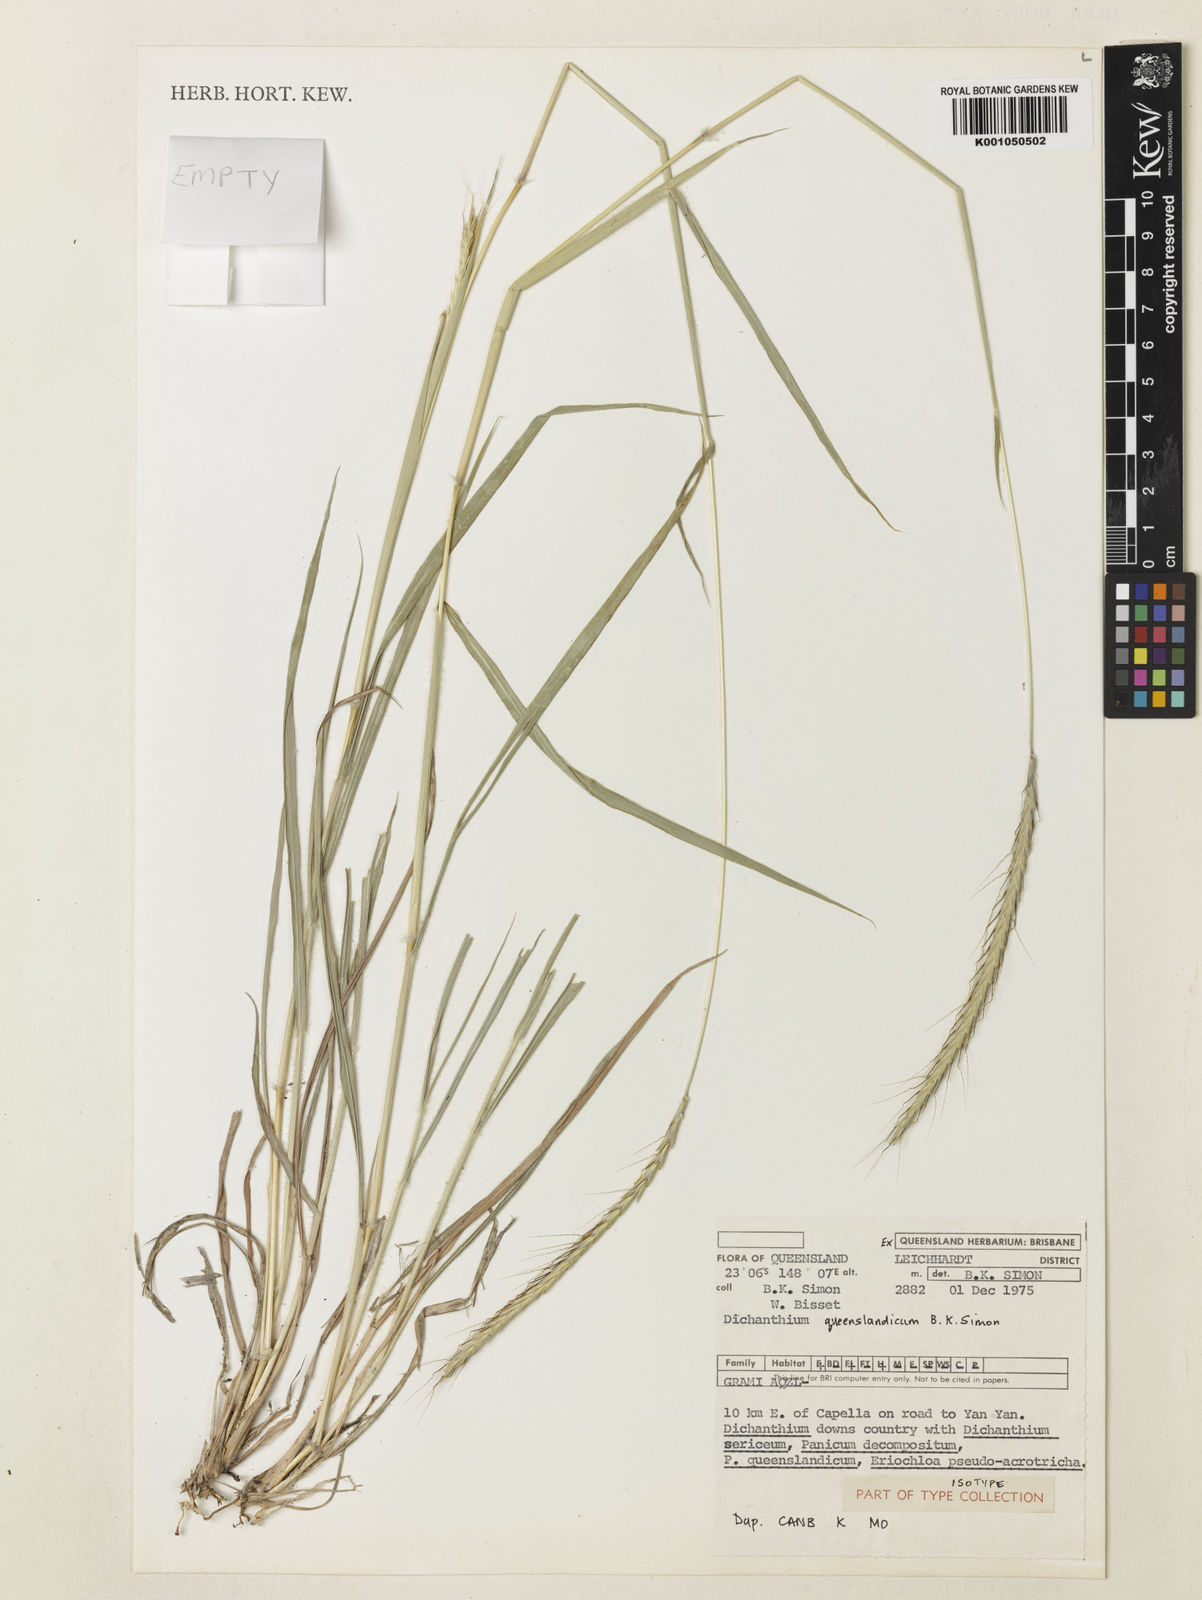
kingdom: Plantae
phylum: Tracheophyta
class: Liliopsida
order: Poales
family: Poaceae
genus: Dichanthium
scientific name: Dichanthium queenslandicum
